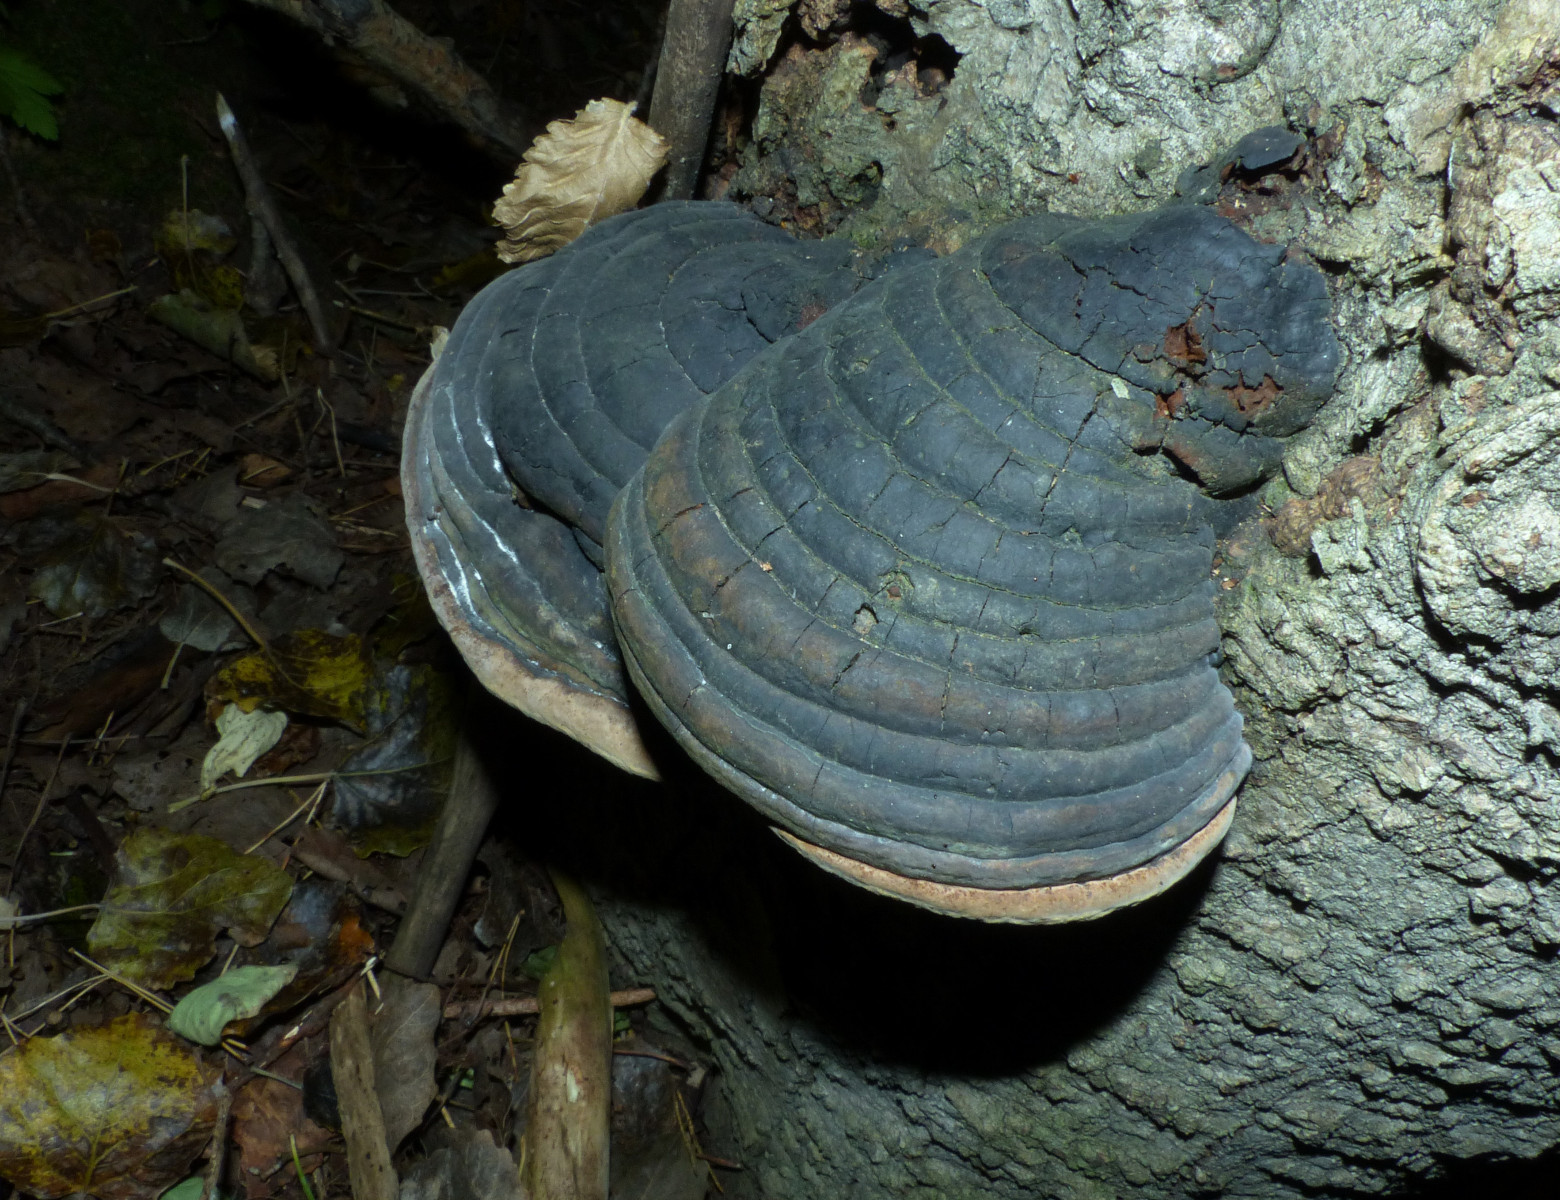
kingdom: Fungi
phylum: Basidiomycota
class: Agaricomycetes
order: Hymenochaetales
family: Hymenochaetaceae
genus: Phellinus
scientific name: Phellinus populicola
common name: poppel-ildporesvamp
